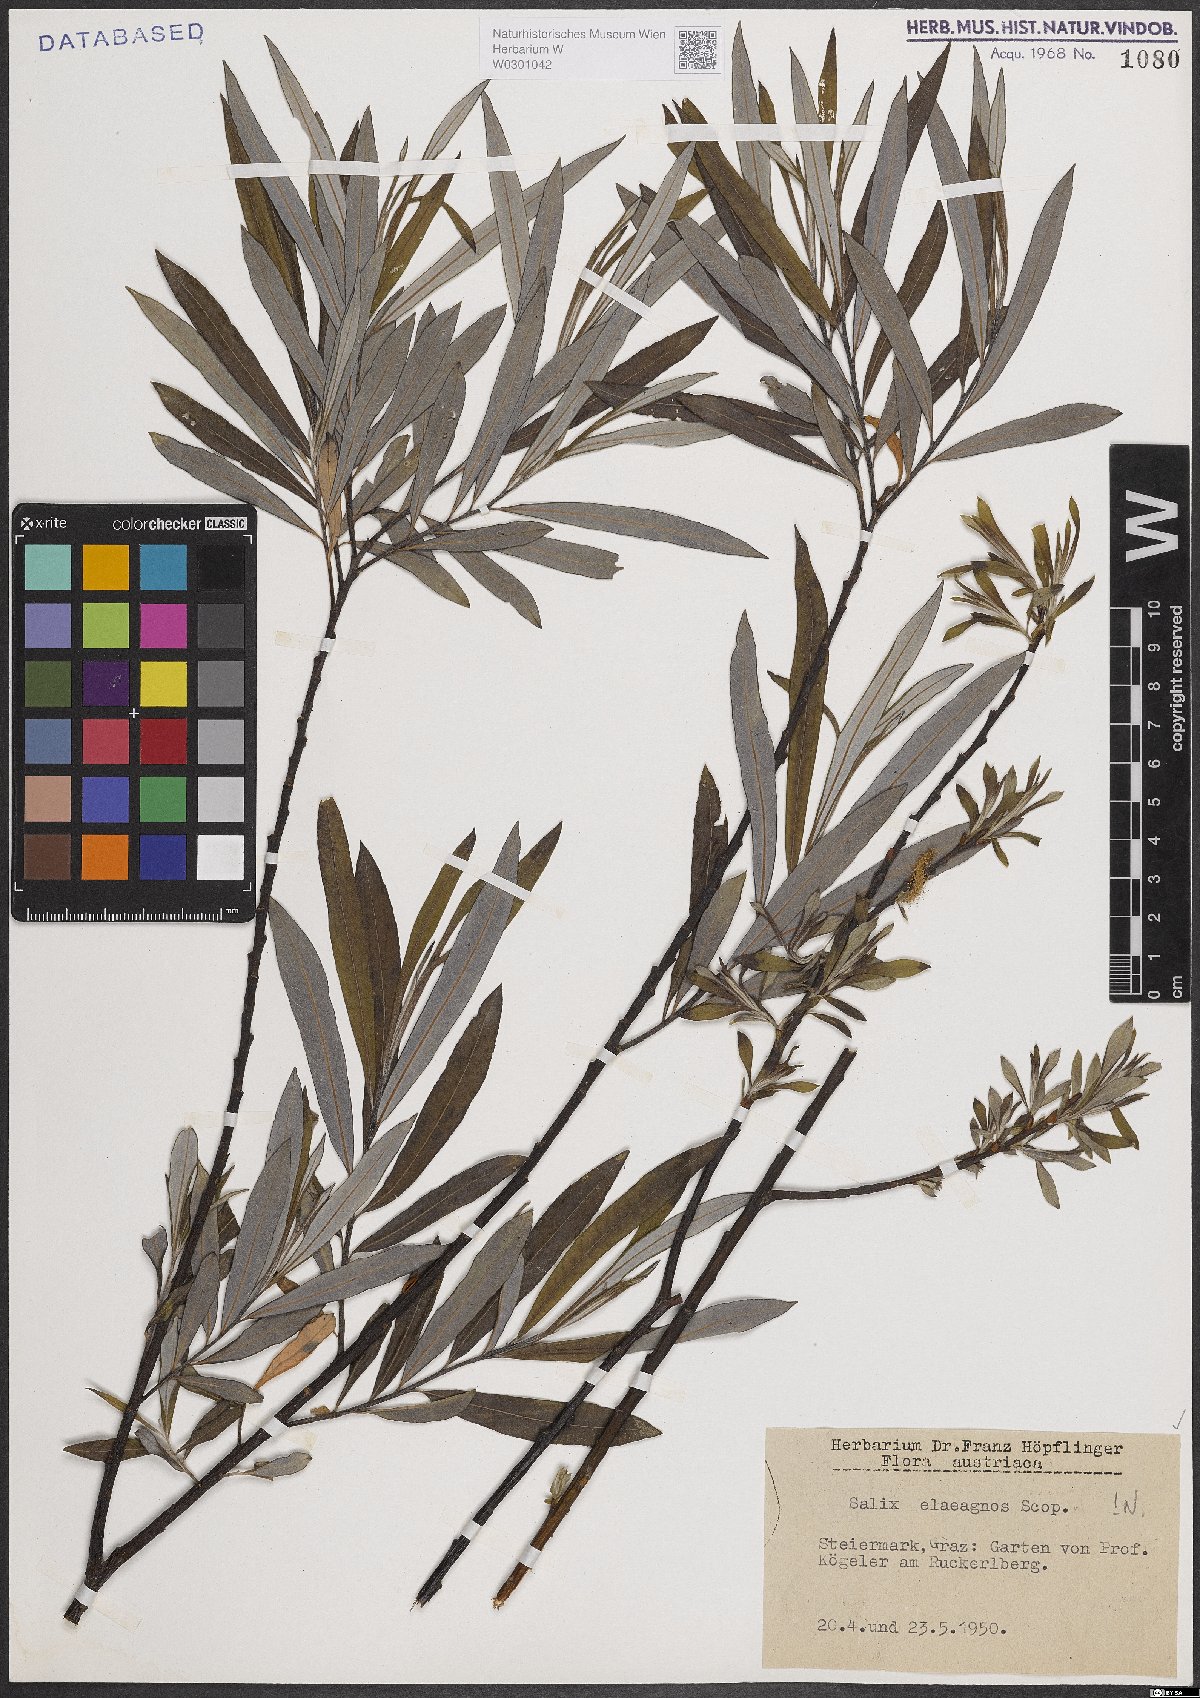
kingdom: Plantae
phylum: Tracheophyta
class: Magnoliopsida
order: Malpighiales
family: Salicaceae
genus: Salix
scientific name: Salix eleagnos
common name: Elaeagnus willow
